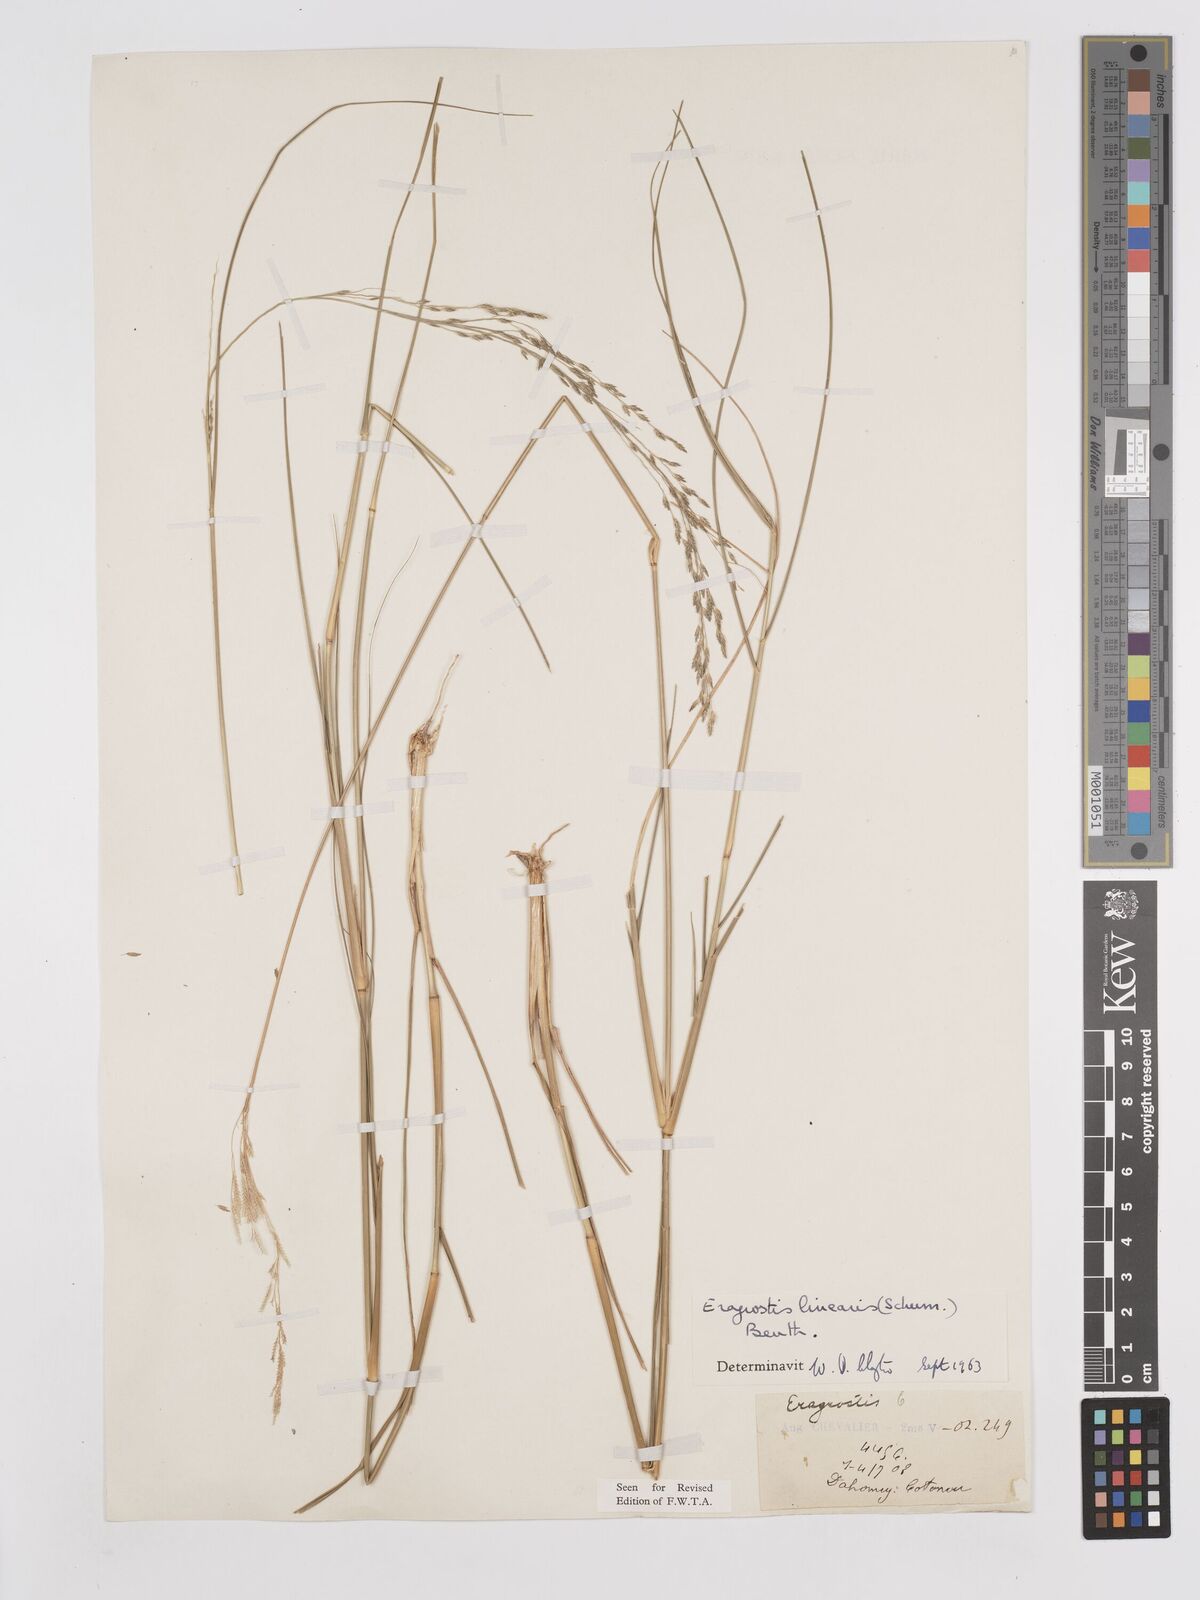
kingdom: Plantae
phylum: Tracheophyta
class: Liliopsida
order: Poales
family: Poaceae
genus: Eragrostis
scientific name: Eragrostis prolifera
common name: Dominican lovegrass
